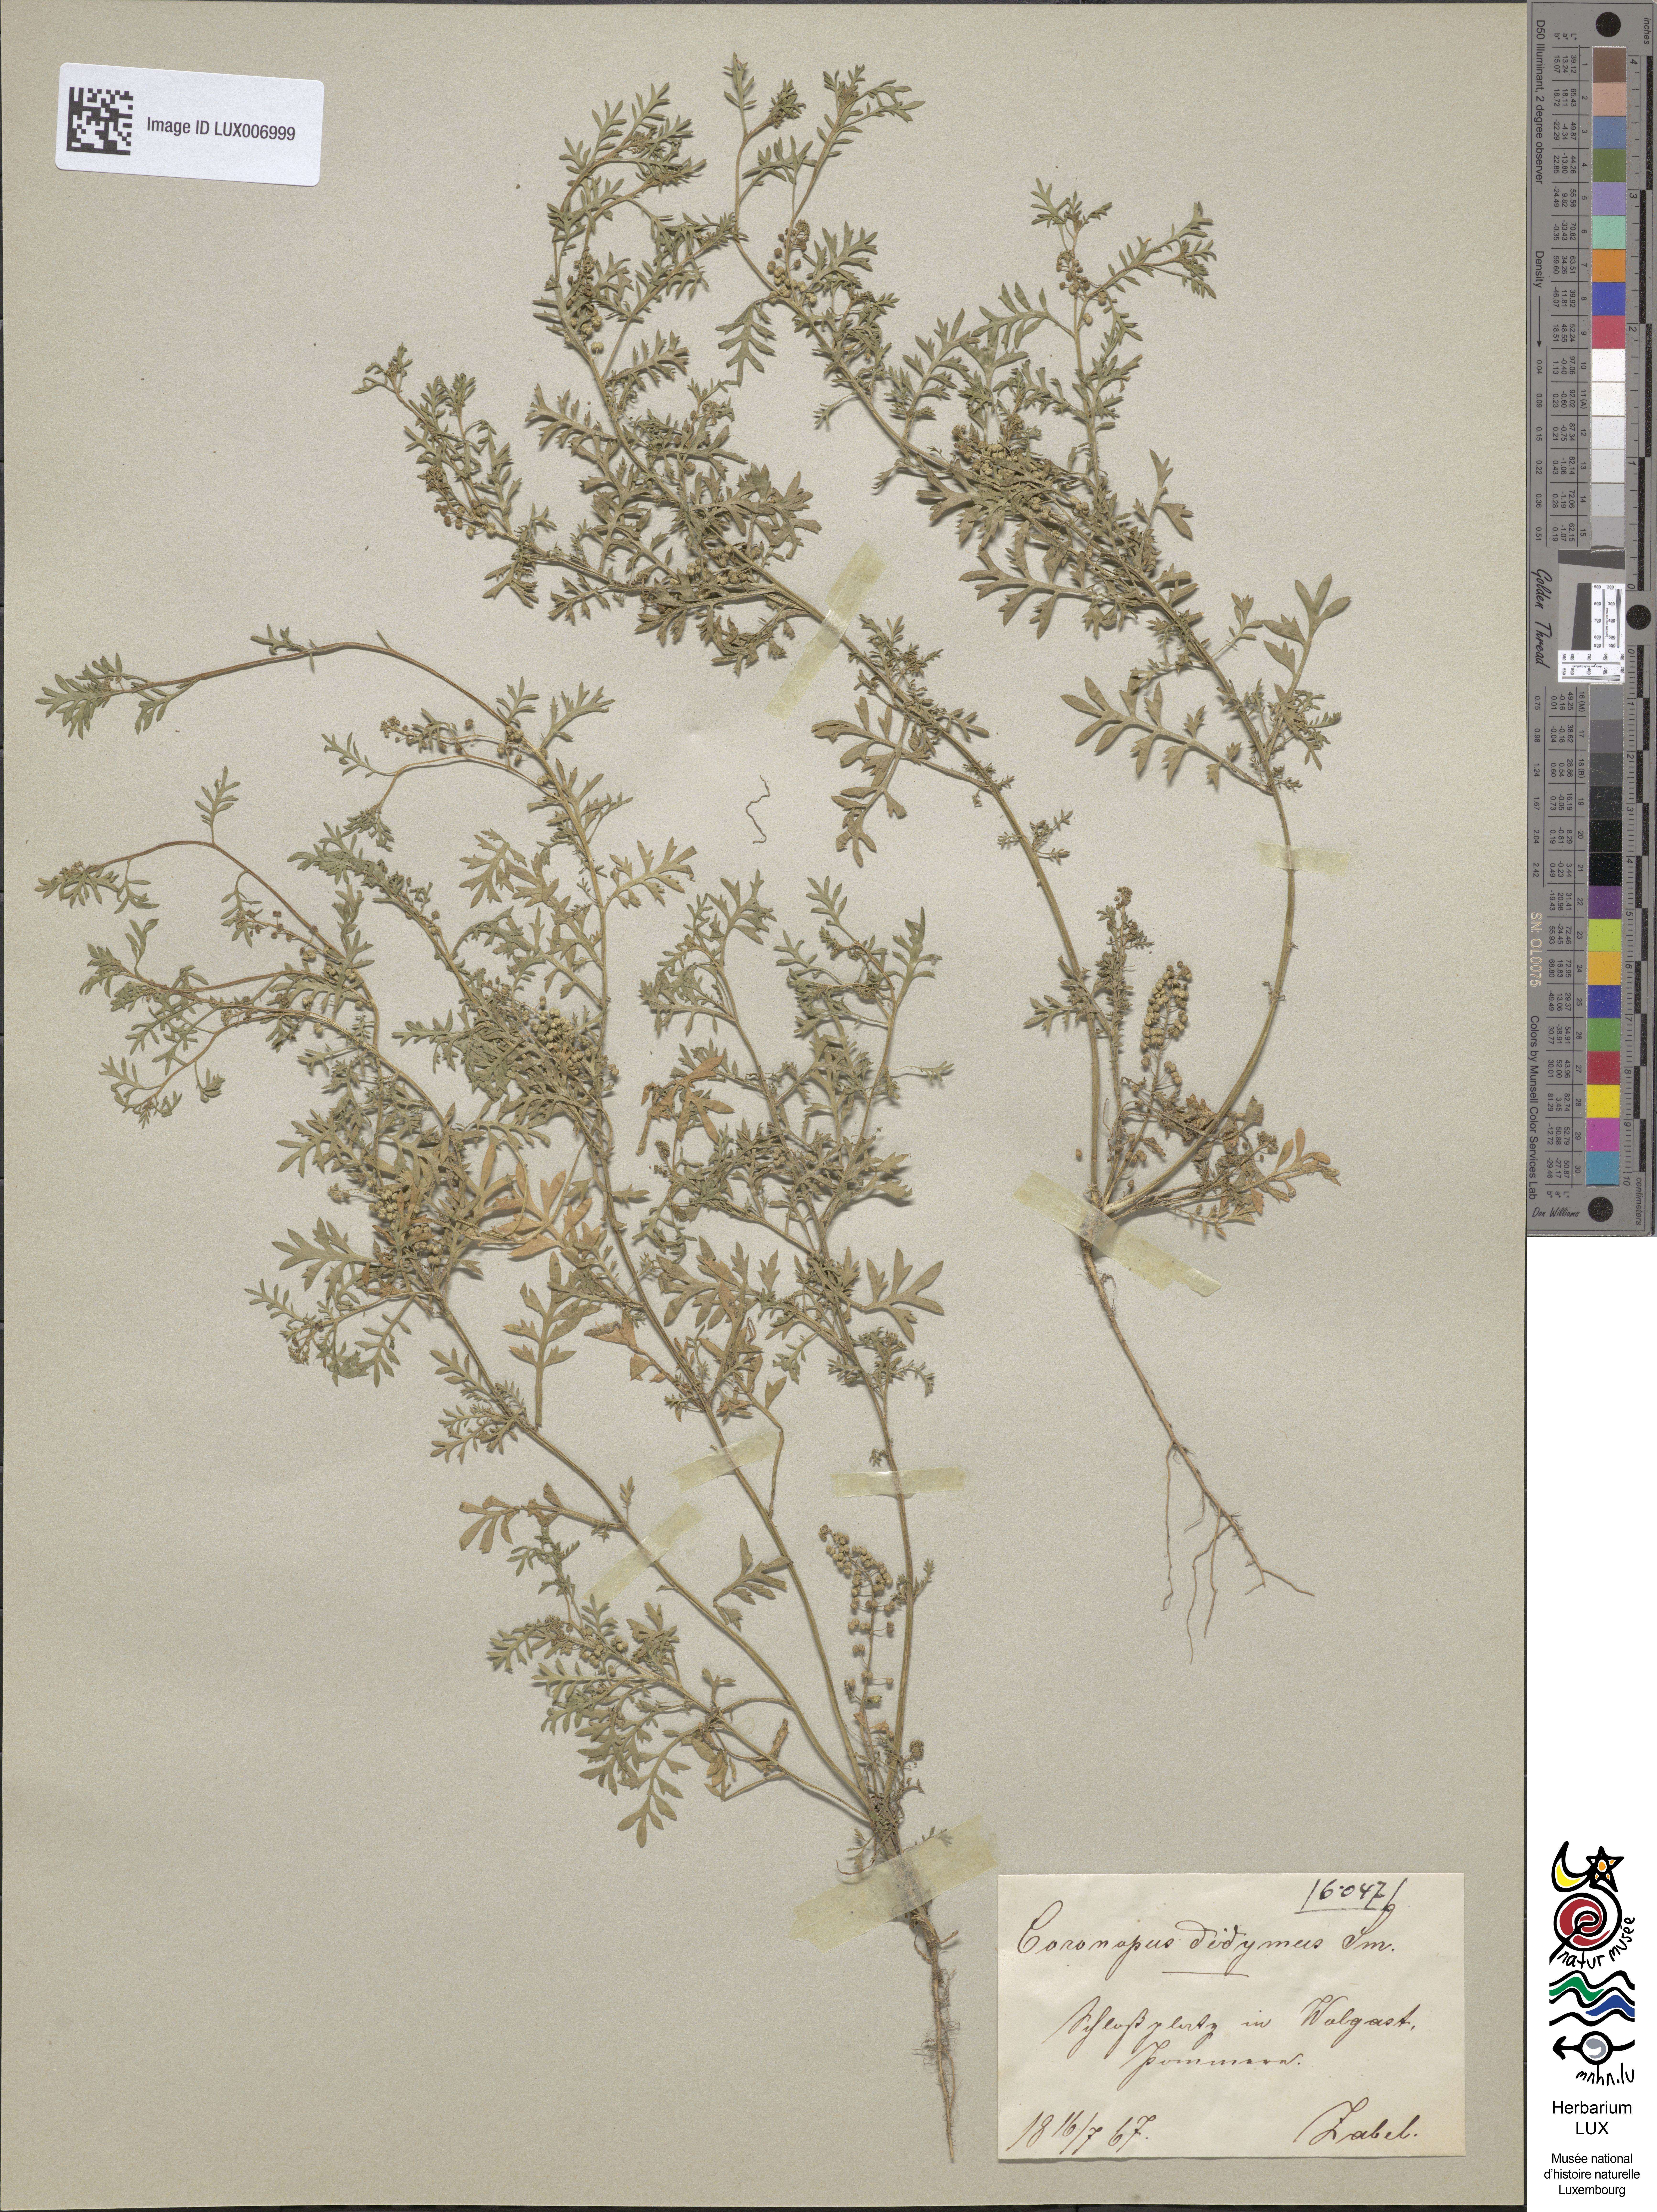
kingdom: Plantae
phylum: Tracheophyta
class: Magnoliopsida
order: Brassicales
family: Brassicaceae
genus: Lepidium
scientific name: Lepidium didymum
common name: Lesser swinecress
